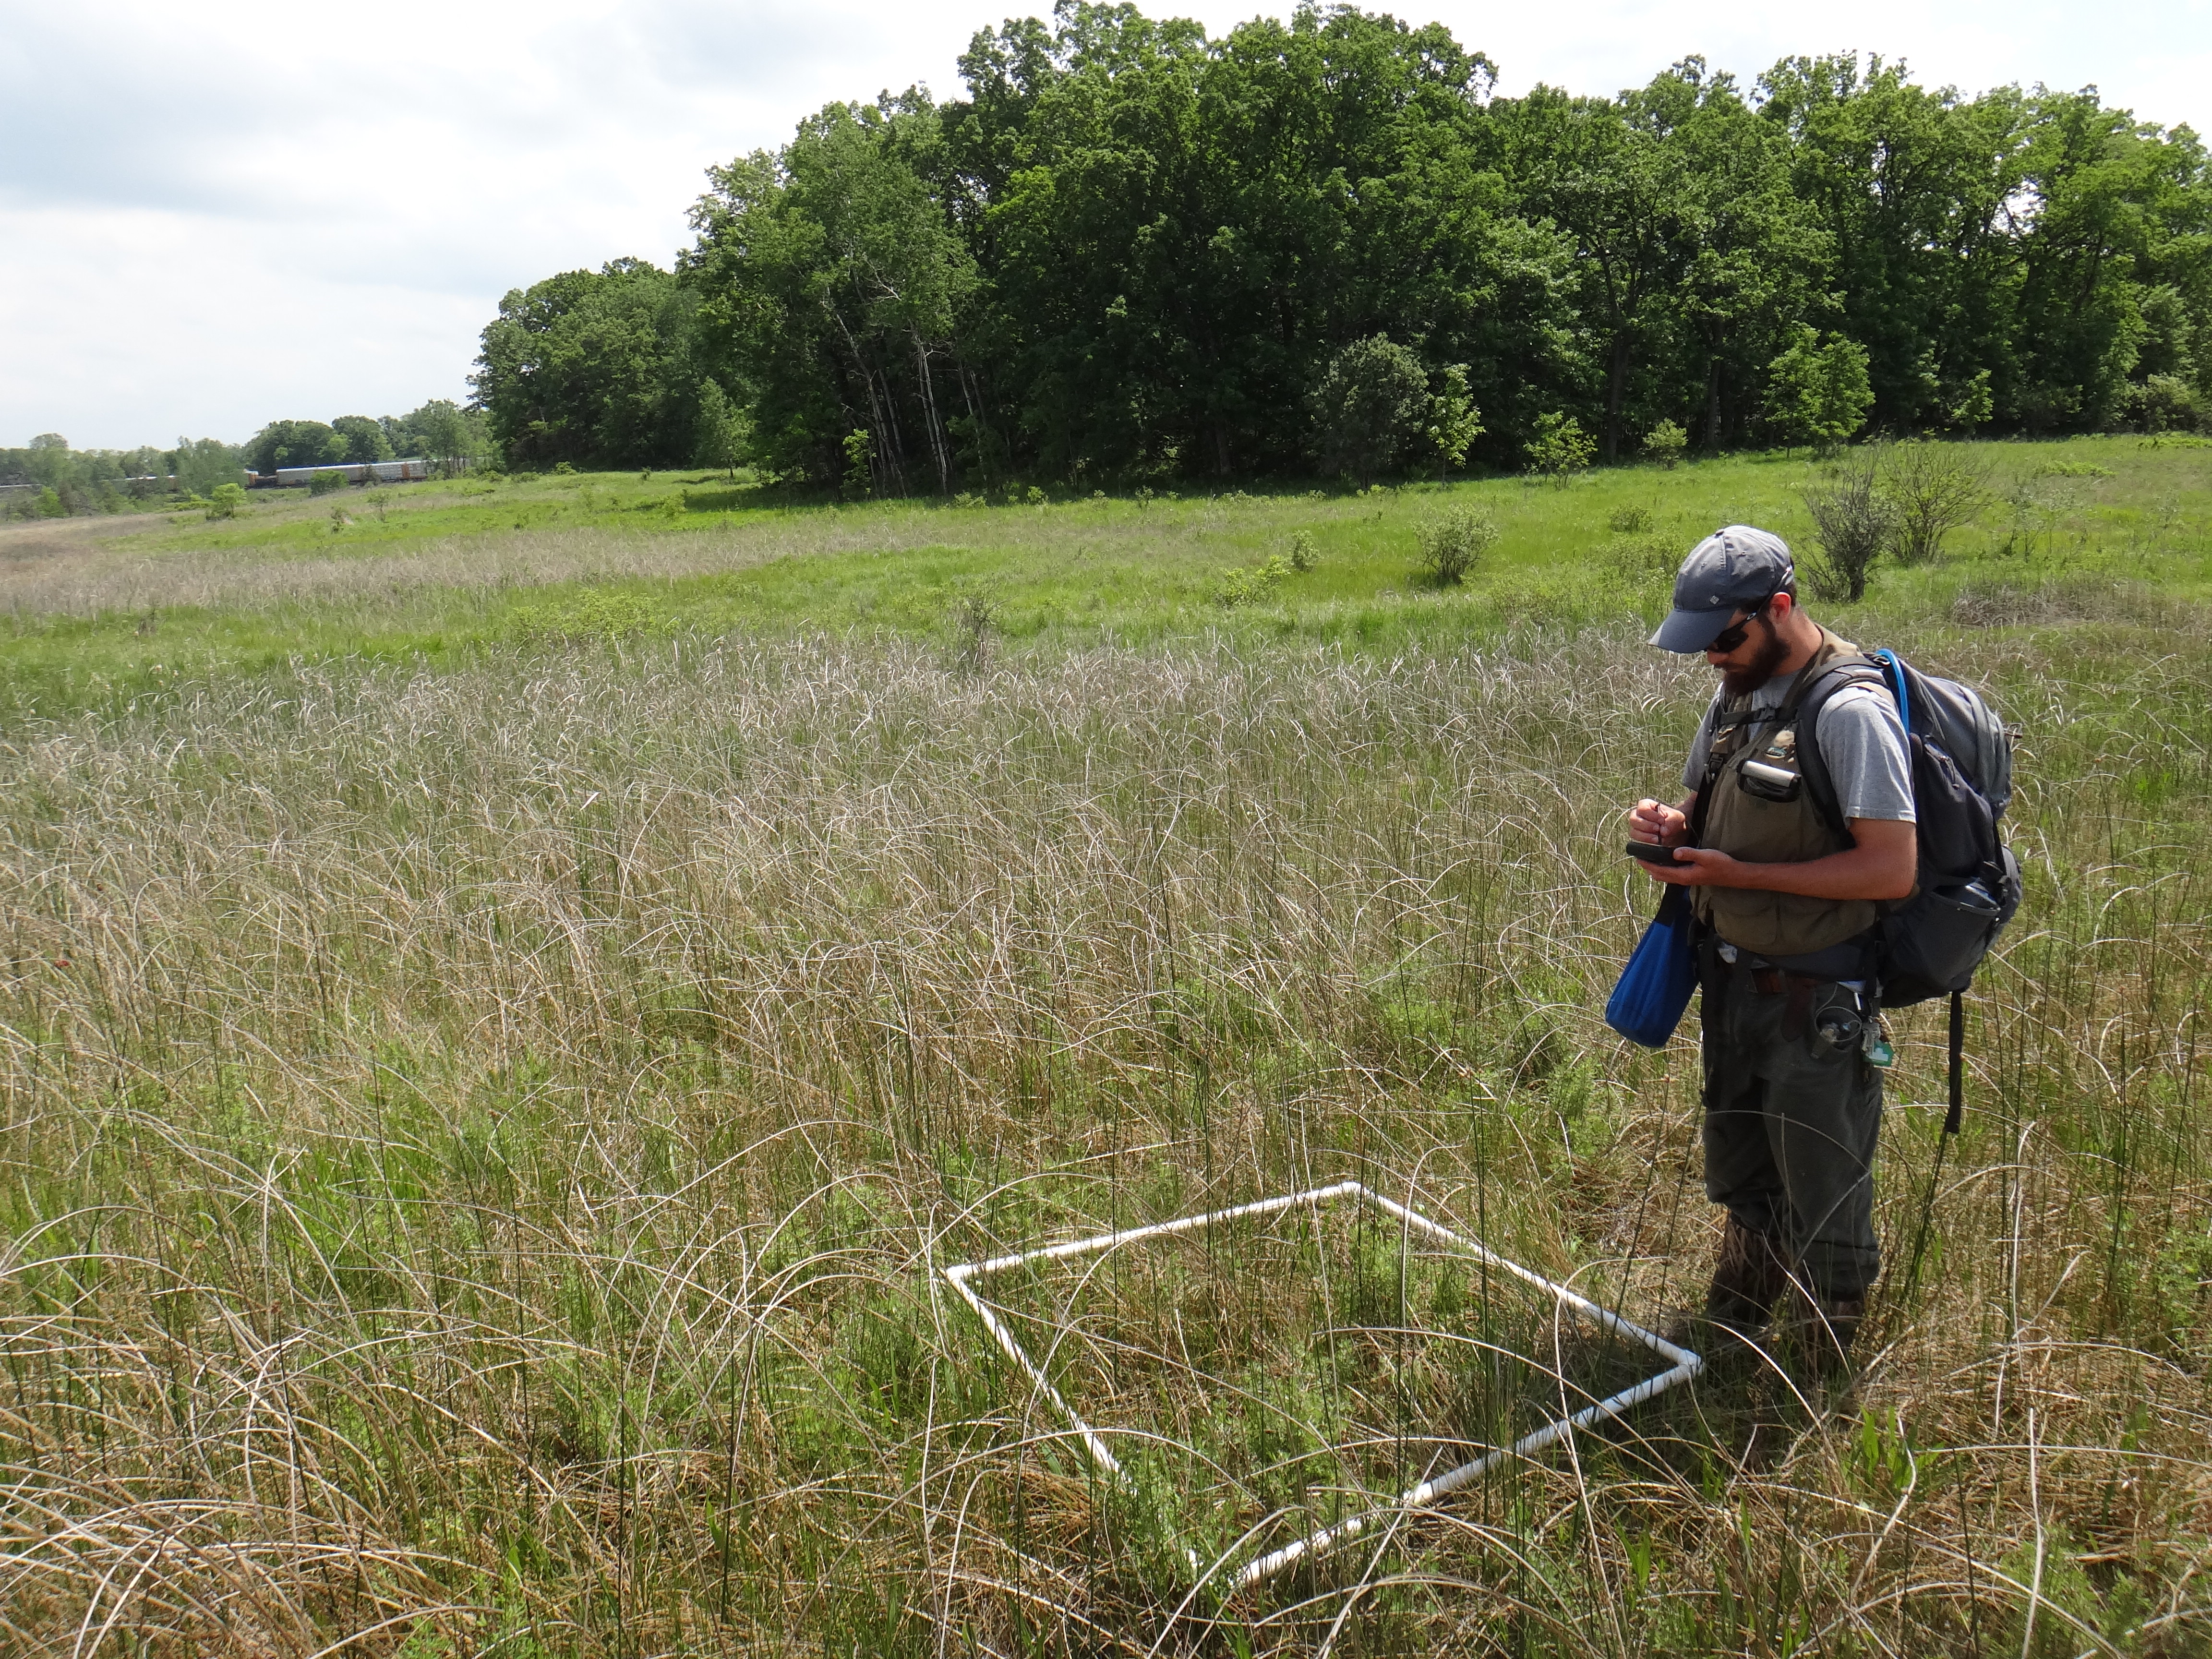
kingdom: Plantae
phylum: Tracheophyta
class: Magnoliopsida
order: Asterales
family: Asteraceae
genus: Symphyotrichum
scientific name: Symphyotrichum lanceolatum
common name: Panicled aster
